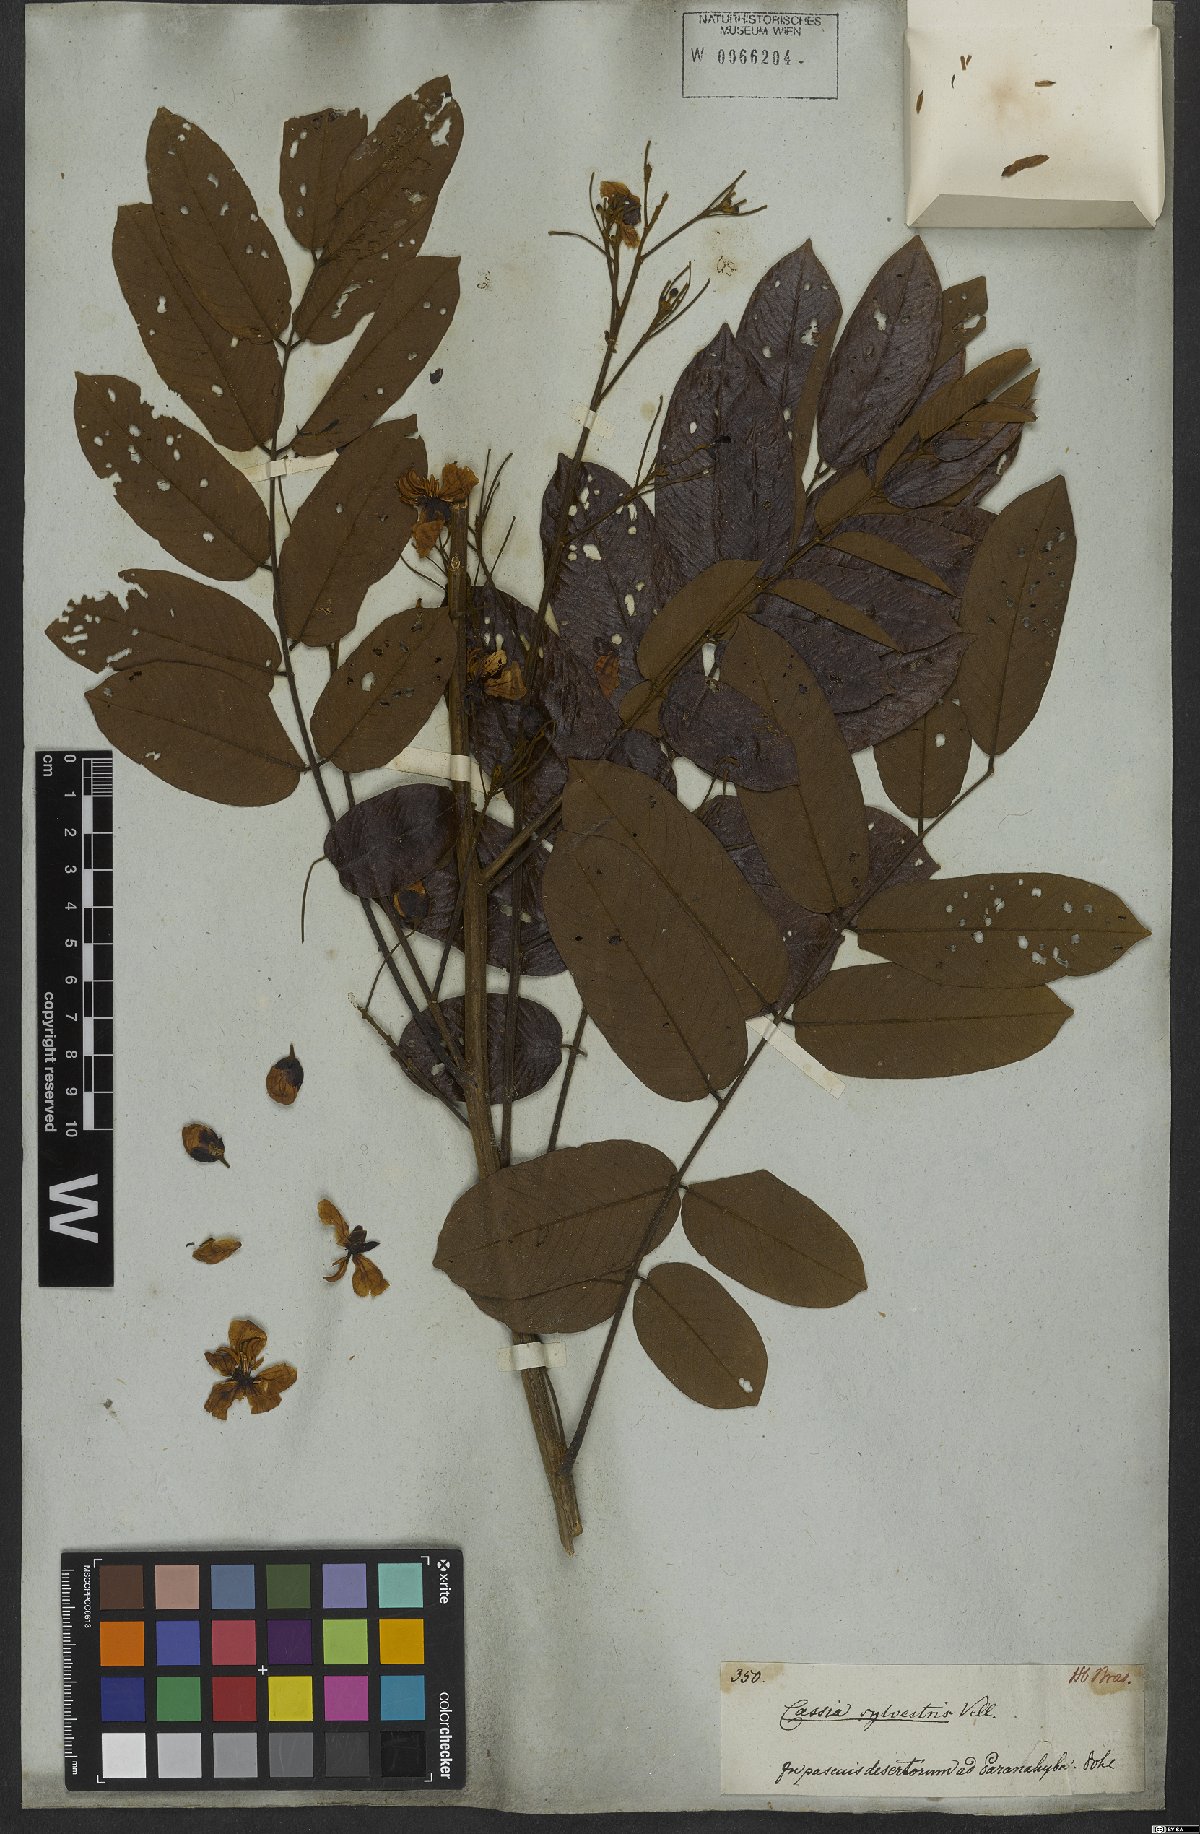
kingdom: Plantae
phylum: Tracheophyta
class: Magnoliopsida
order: Fabales
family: Fabaceae
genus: Senna
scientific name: Senna silvestris
